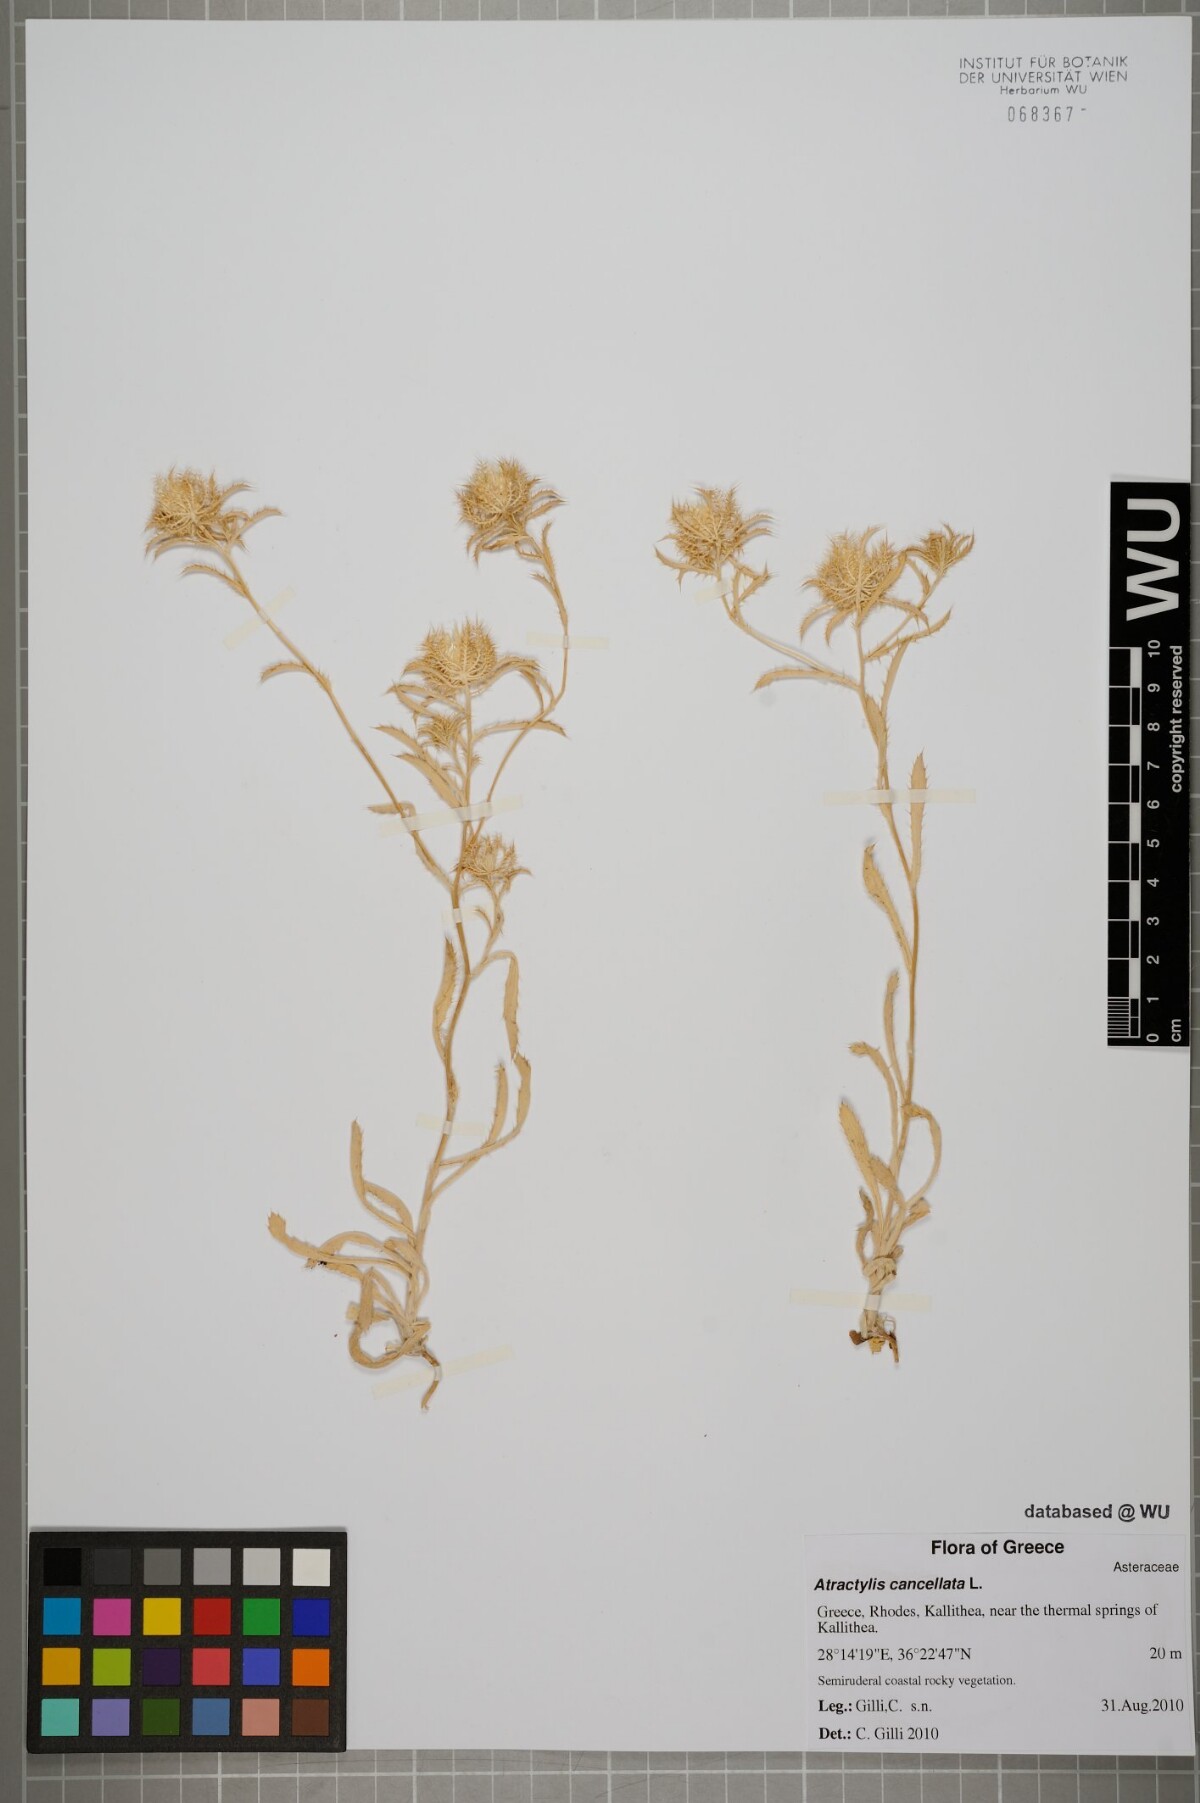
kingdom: Plantae
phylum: Tracheophyta
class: Magnoliopsida
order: Asterales
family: Asteraceae
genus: Atractylis
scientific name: Atractylis cancellata
